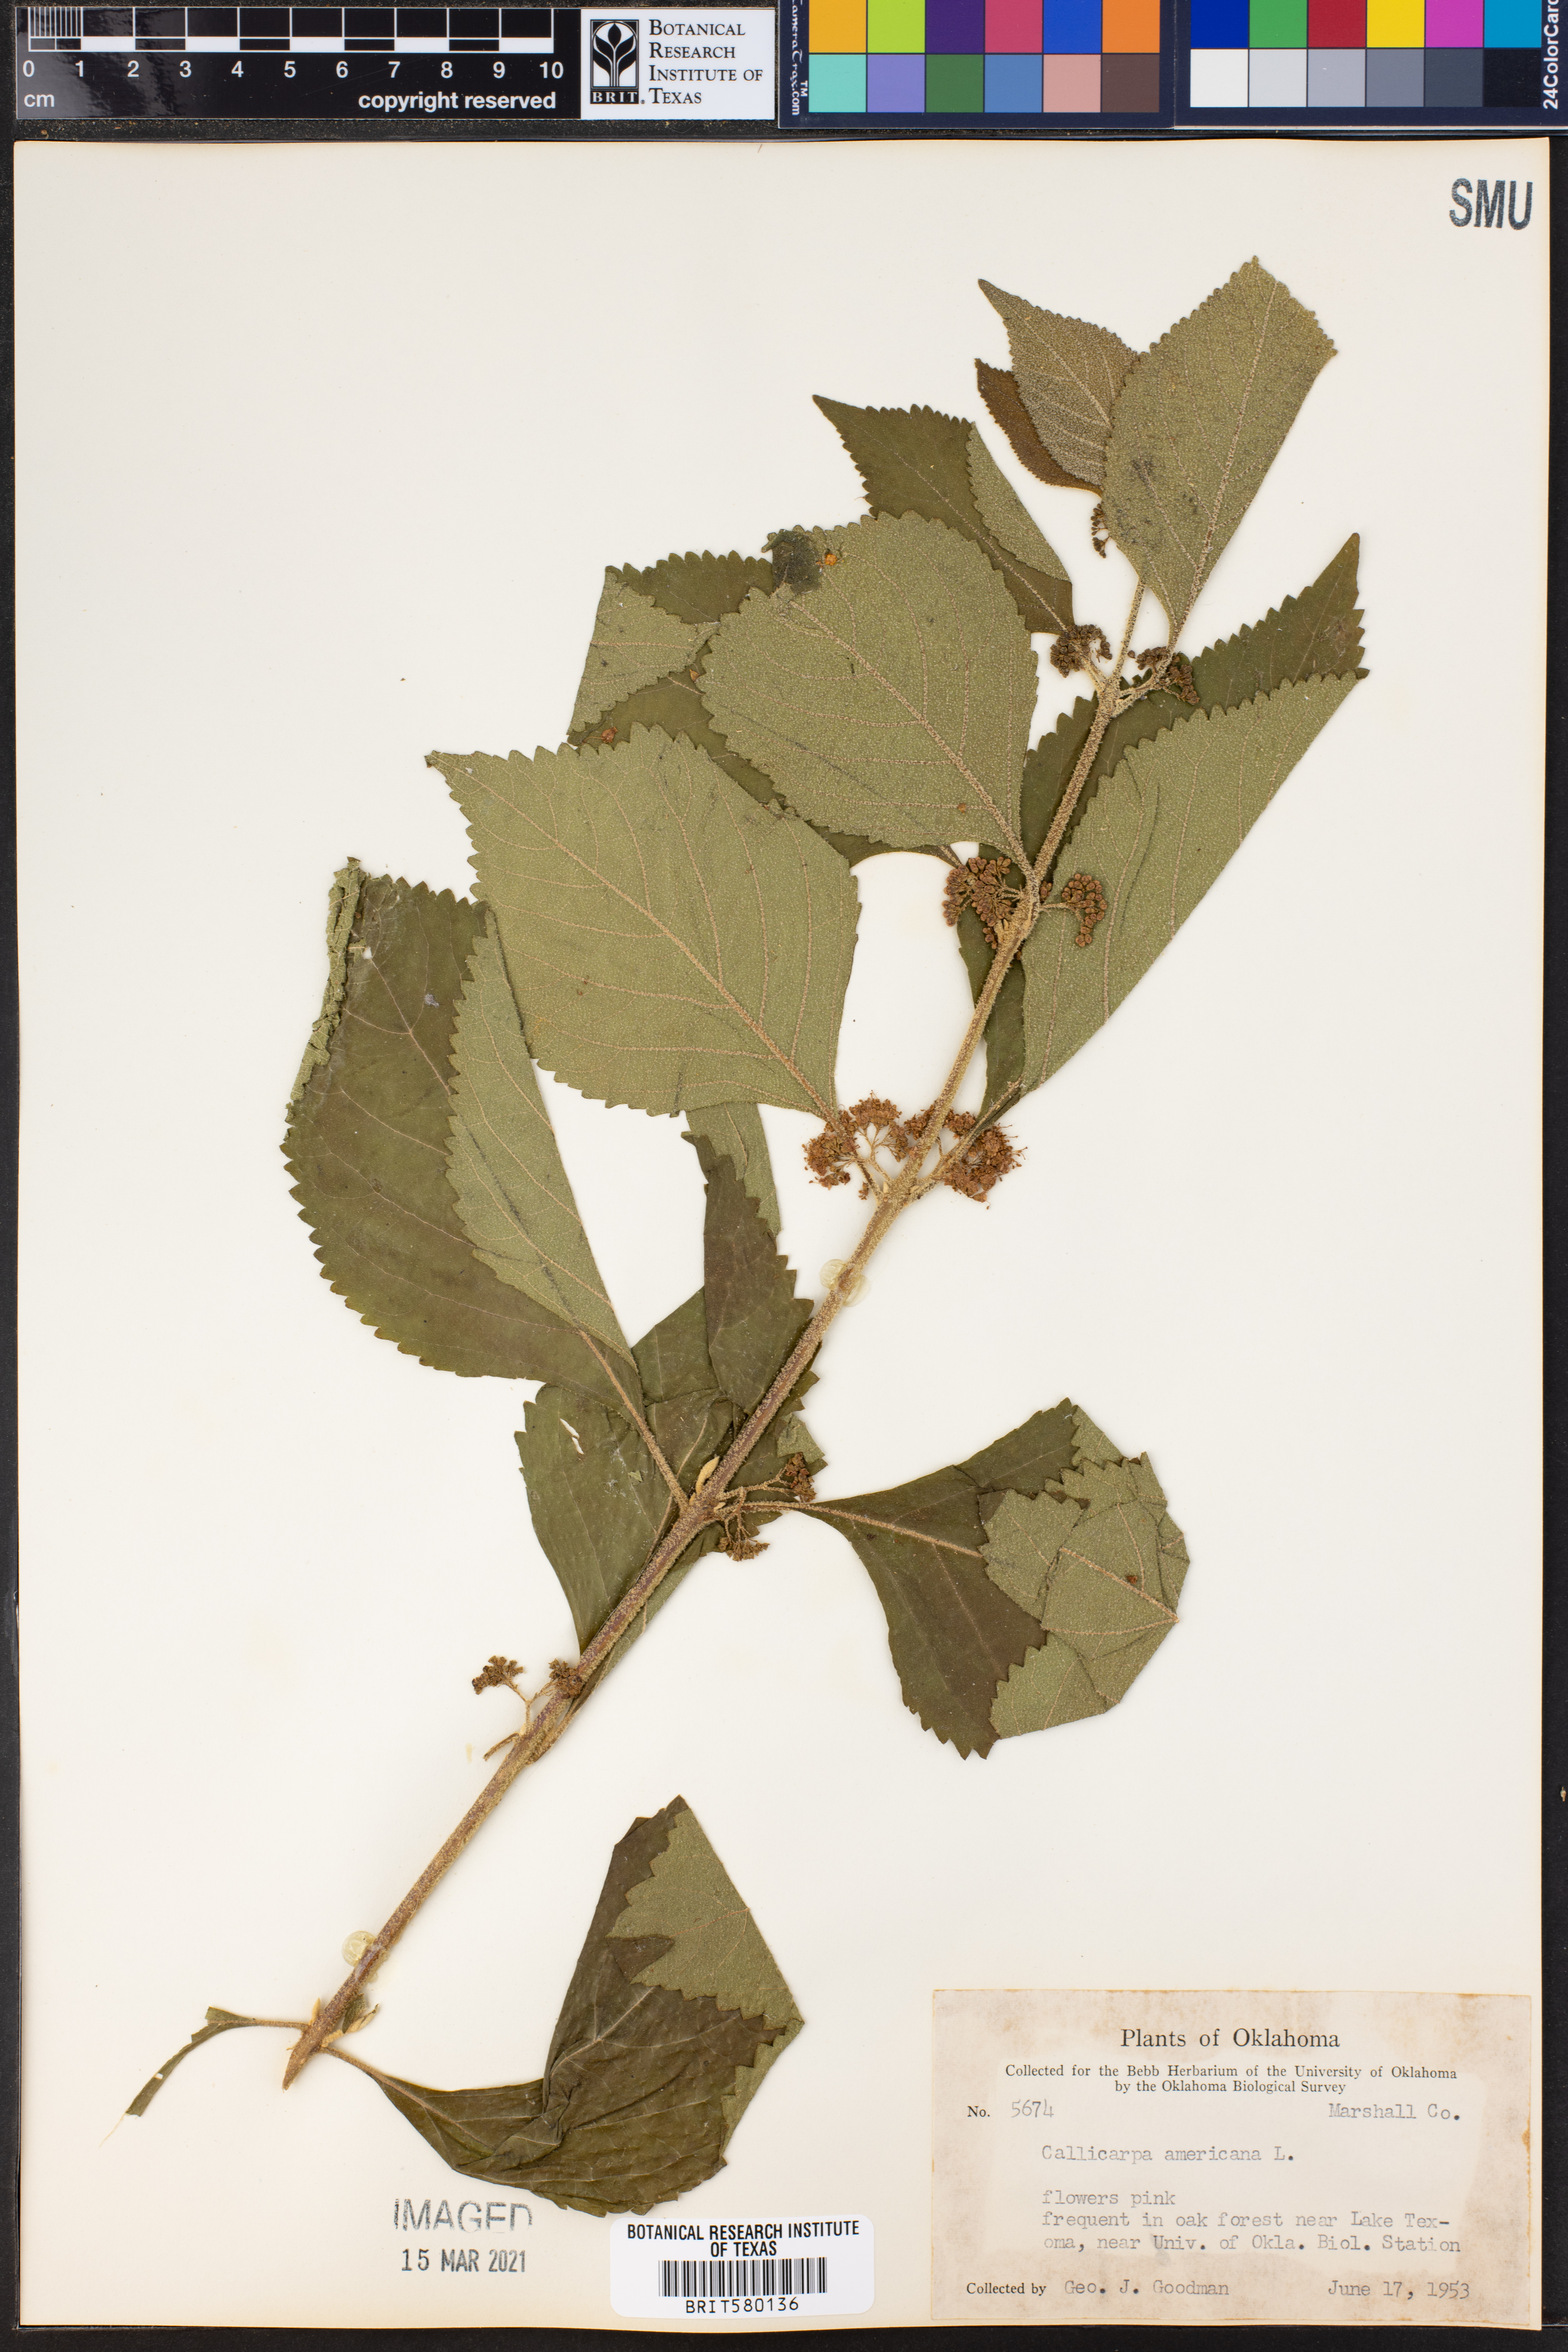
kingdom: Plantae
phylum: Tracheophyta
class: Magnoliopsida
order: Lamiales
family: Lamiaceae
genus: Callicarpa
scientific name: Callicarpa americana
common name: American beautyberry
